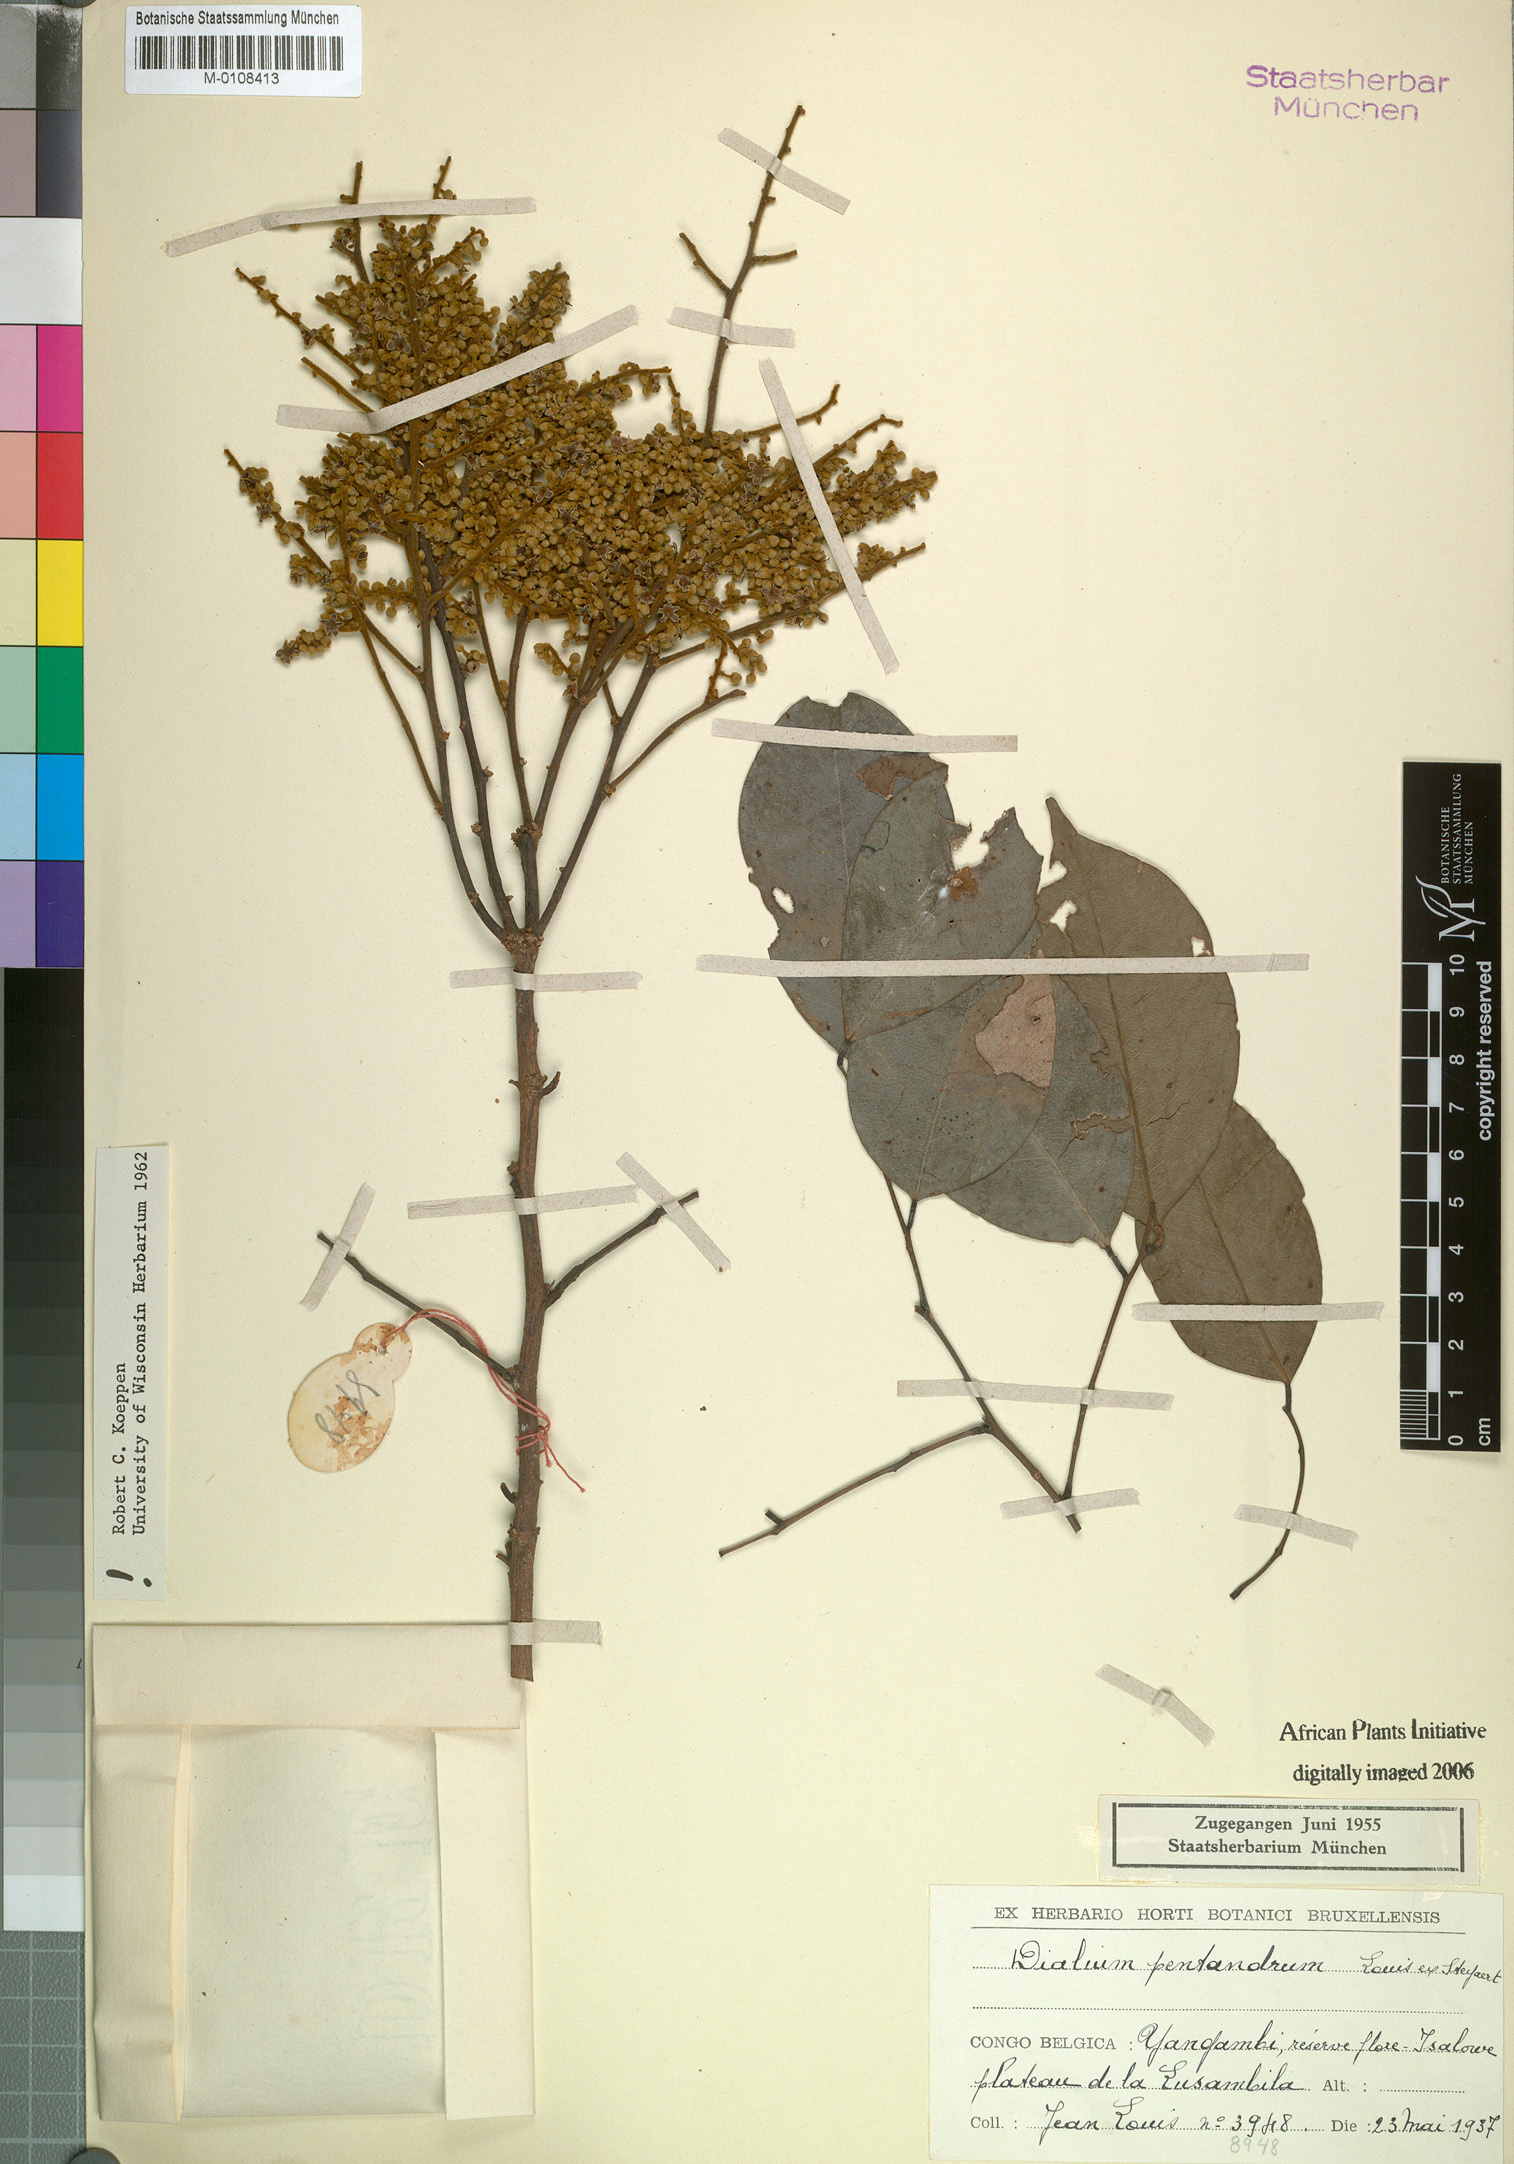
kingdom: Plantae
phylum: Tracheophyta
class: Magnoliopsida
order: Fabales
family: Fabaceae
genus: Dialium
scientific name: Dialium pentandrum
